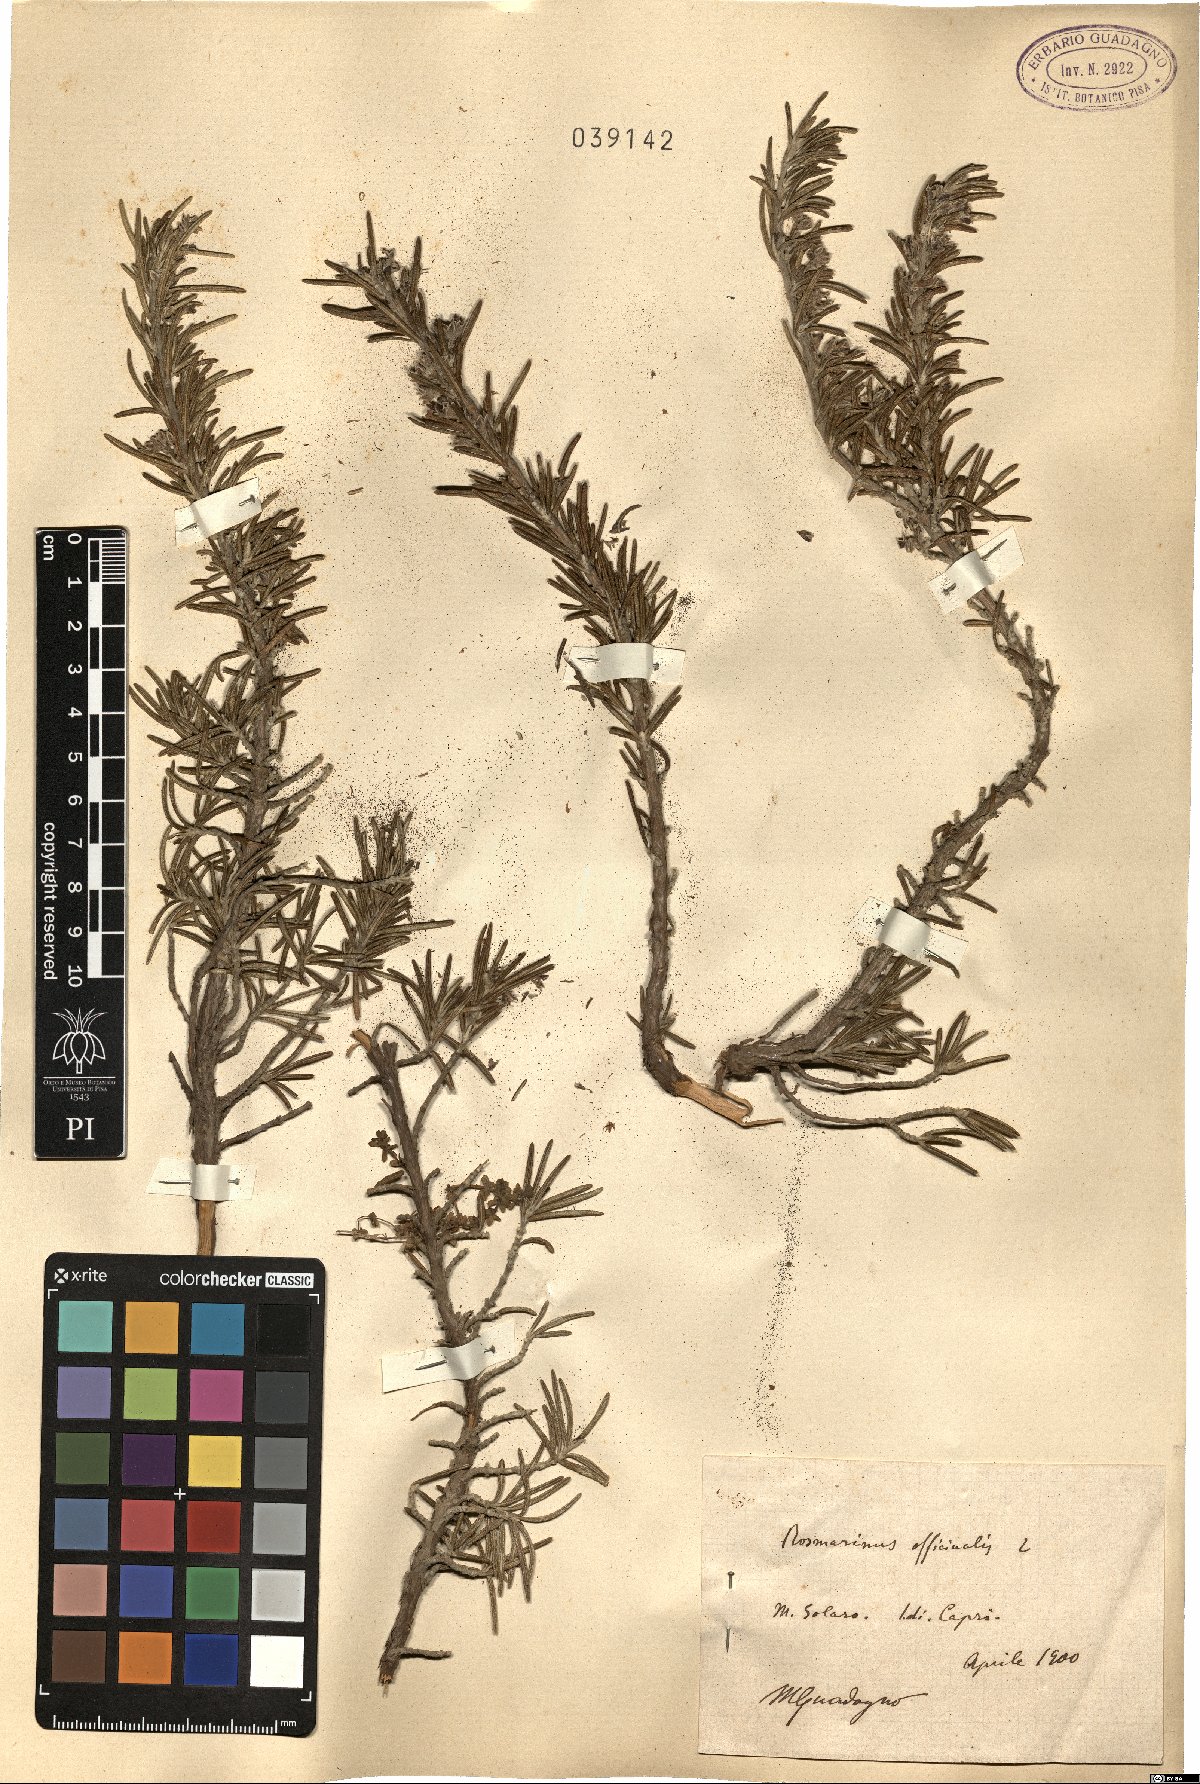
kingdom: Plantae
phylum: Tracheophyta
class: Magnoliopsida
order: Lamiales
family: Lamiaceae
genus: Salvia
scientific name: Salvia rosmarinus
